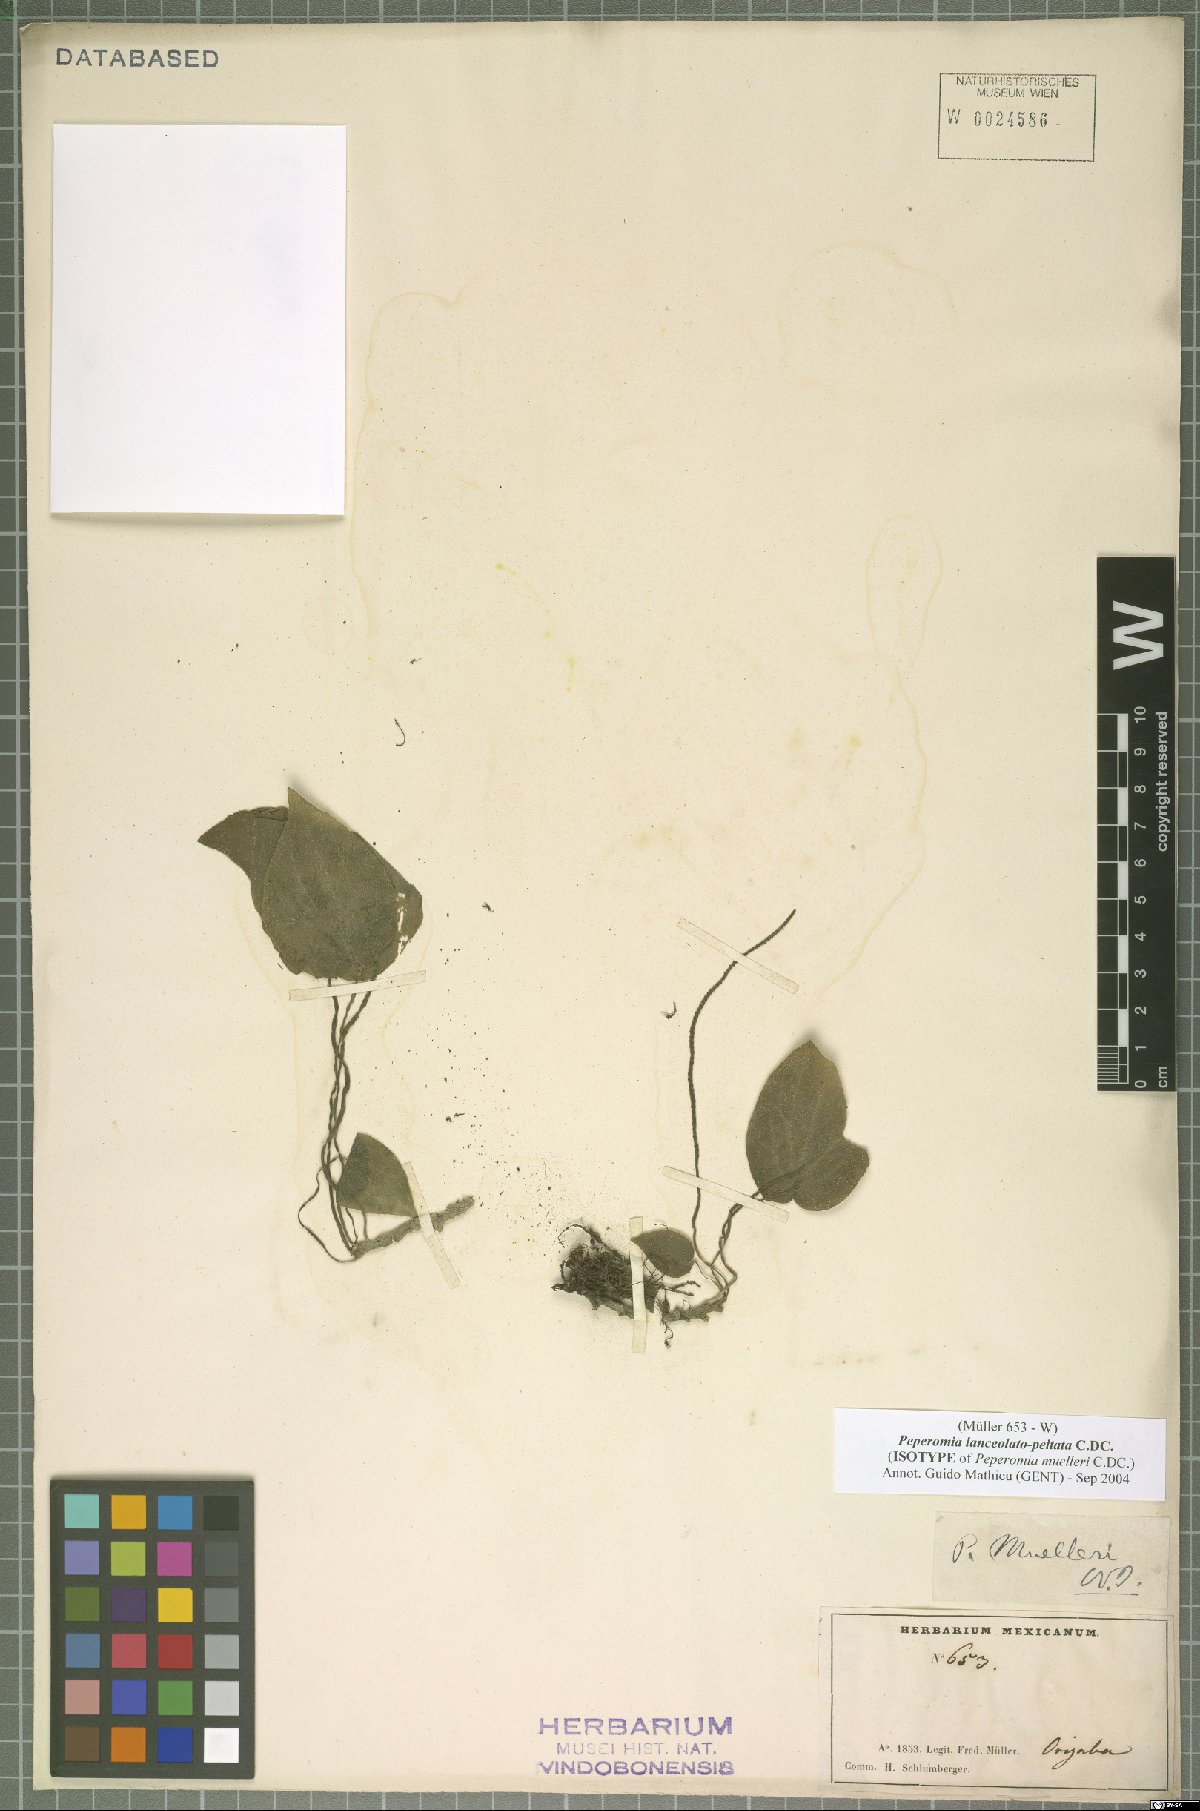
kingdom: Plantae
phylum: Tracheophyta
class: Magnoliopsida
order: Piperales
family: Piperaceae
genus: Peperomia
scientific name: Peperomia lanceolatopeltata
